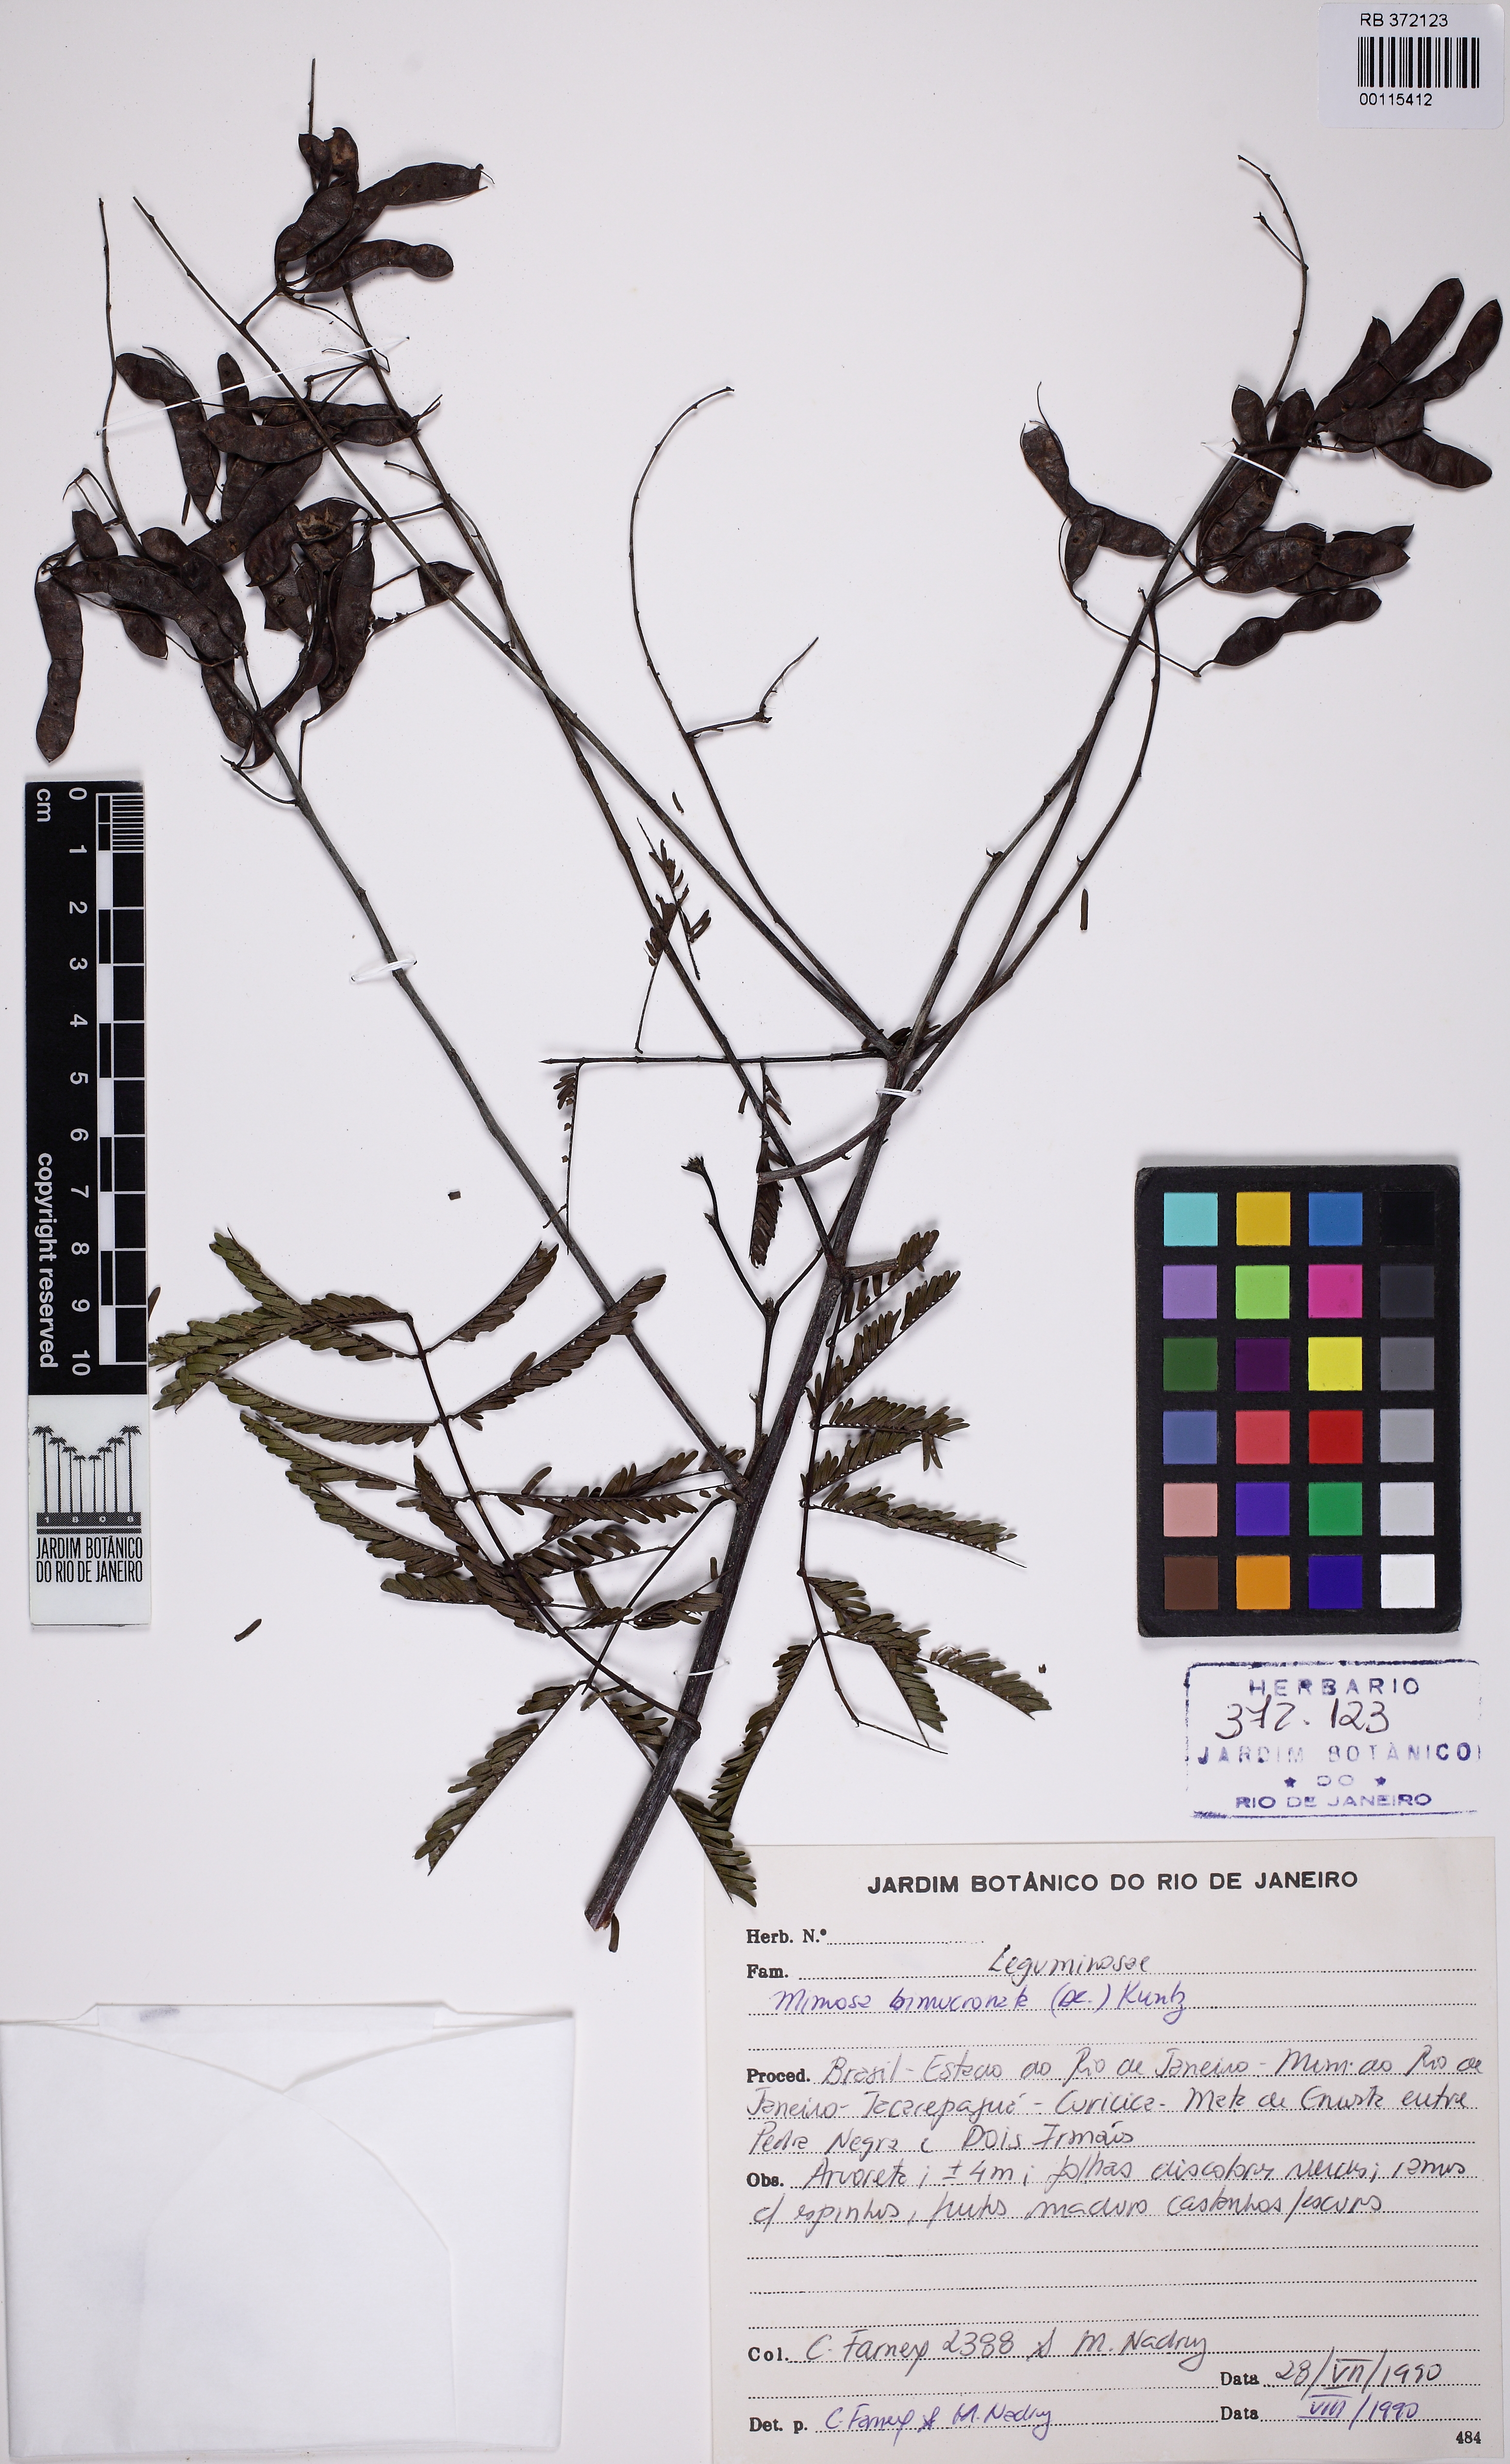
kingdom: Plantae
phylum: Tracheophyta
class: Magnoliopsida
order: Fabales
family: Fabaceae
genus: Mimosa
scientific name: Mimosa bimucronata
